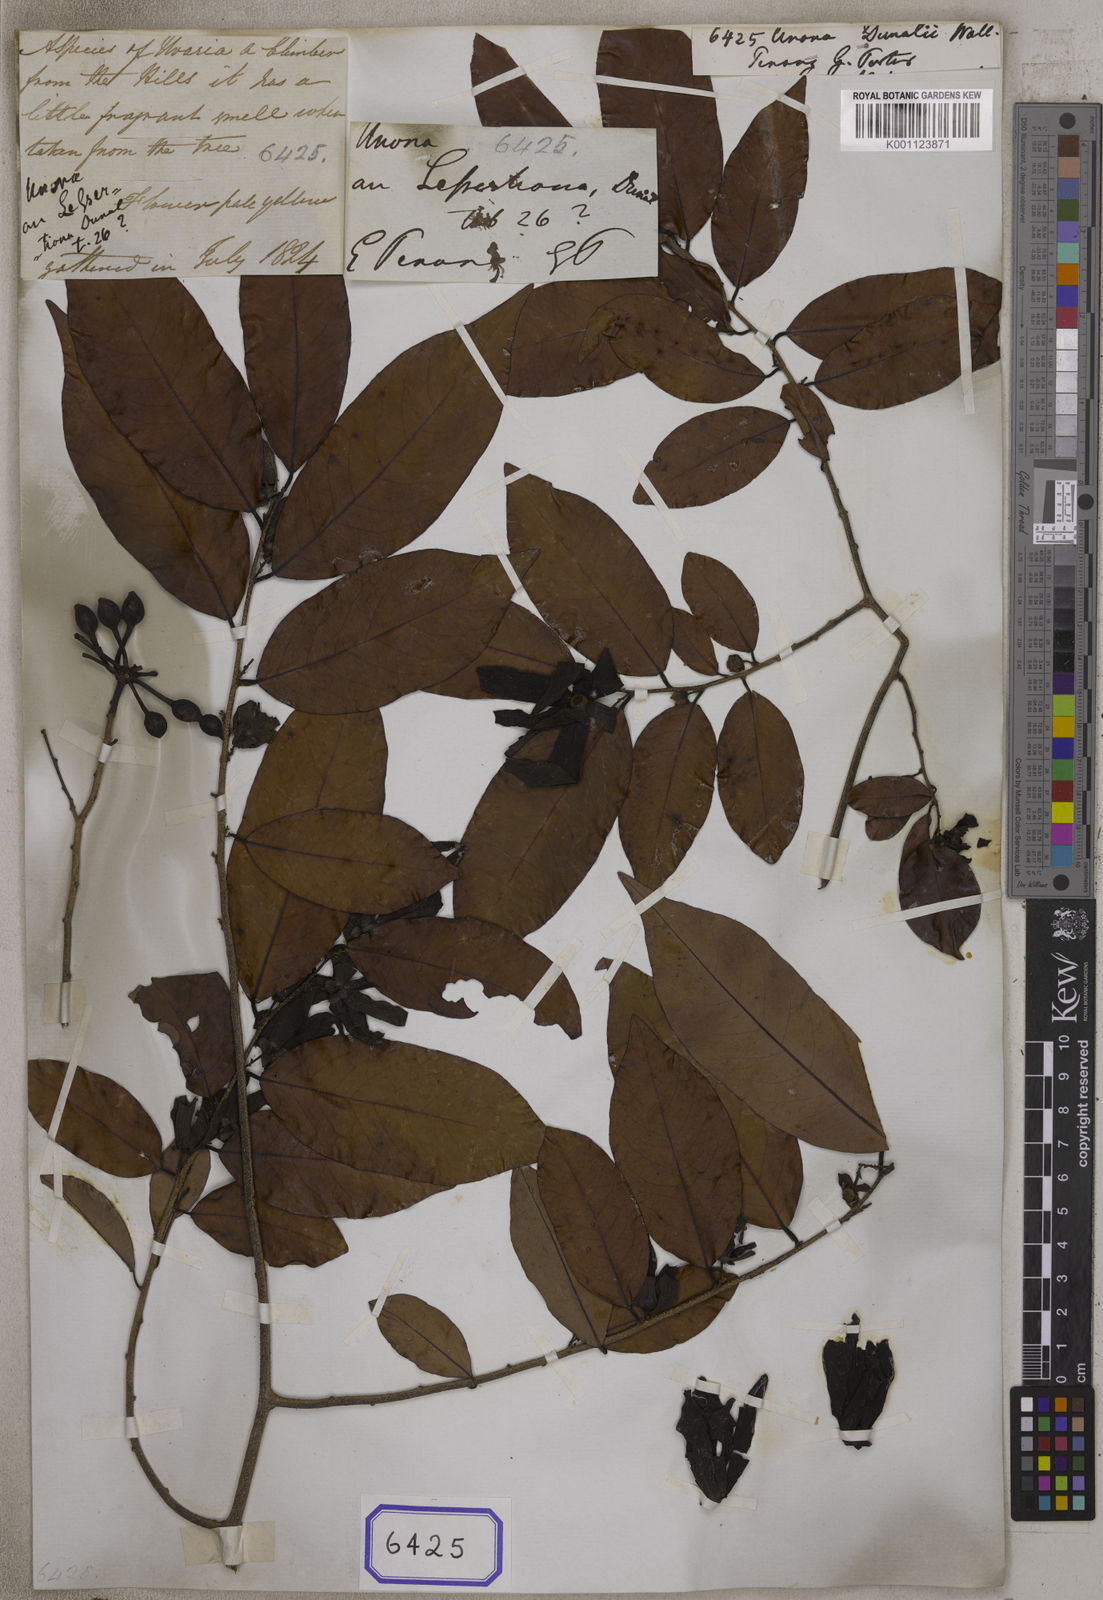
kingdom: Plantae
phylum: Tracheophyta
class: Magnoliopsida
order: Magnoliales
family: Annonaceae
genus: Unona
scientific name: Unona
